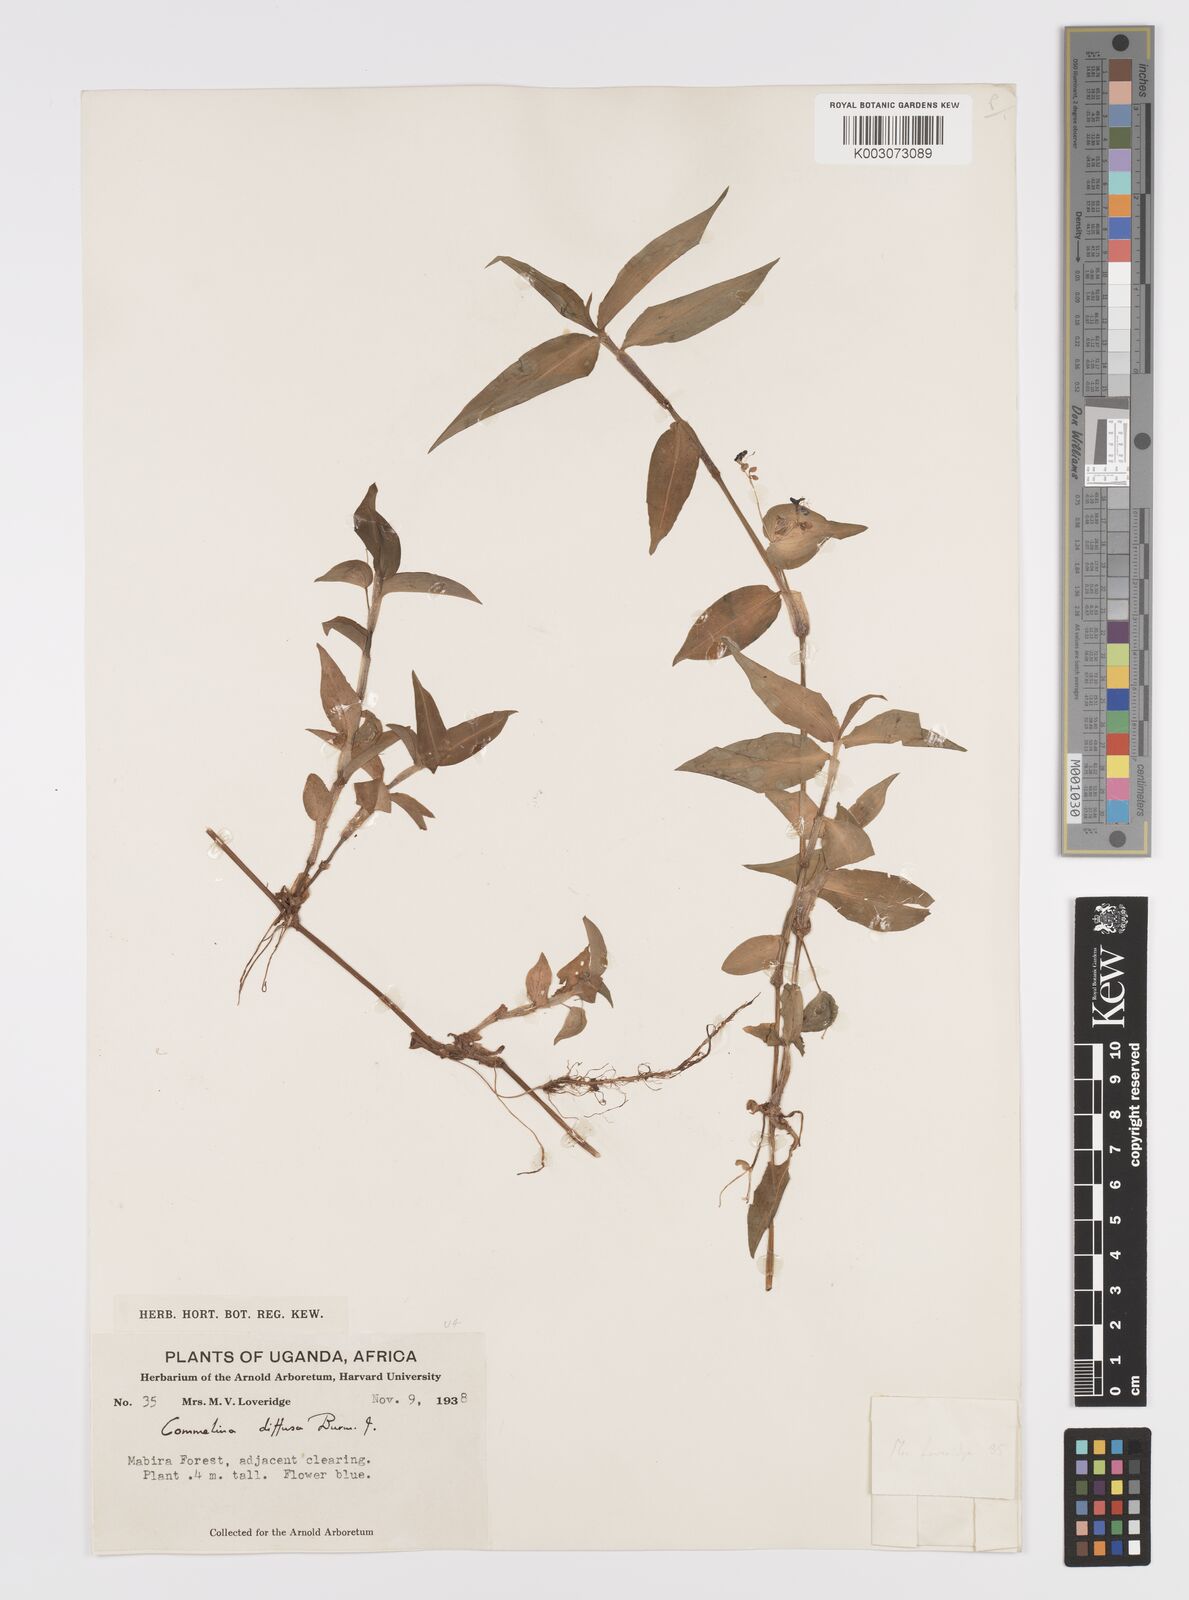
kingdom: Plantae
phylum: Tracheophyta
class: Liliopsida
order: Commelinales
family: Commelinaceae
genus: Commelina
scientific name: Commelina diffusa
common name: Climbing dayflower
